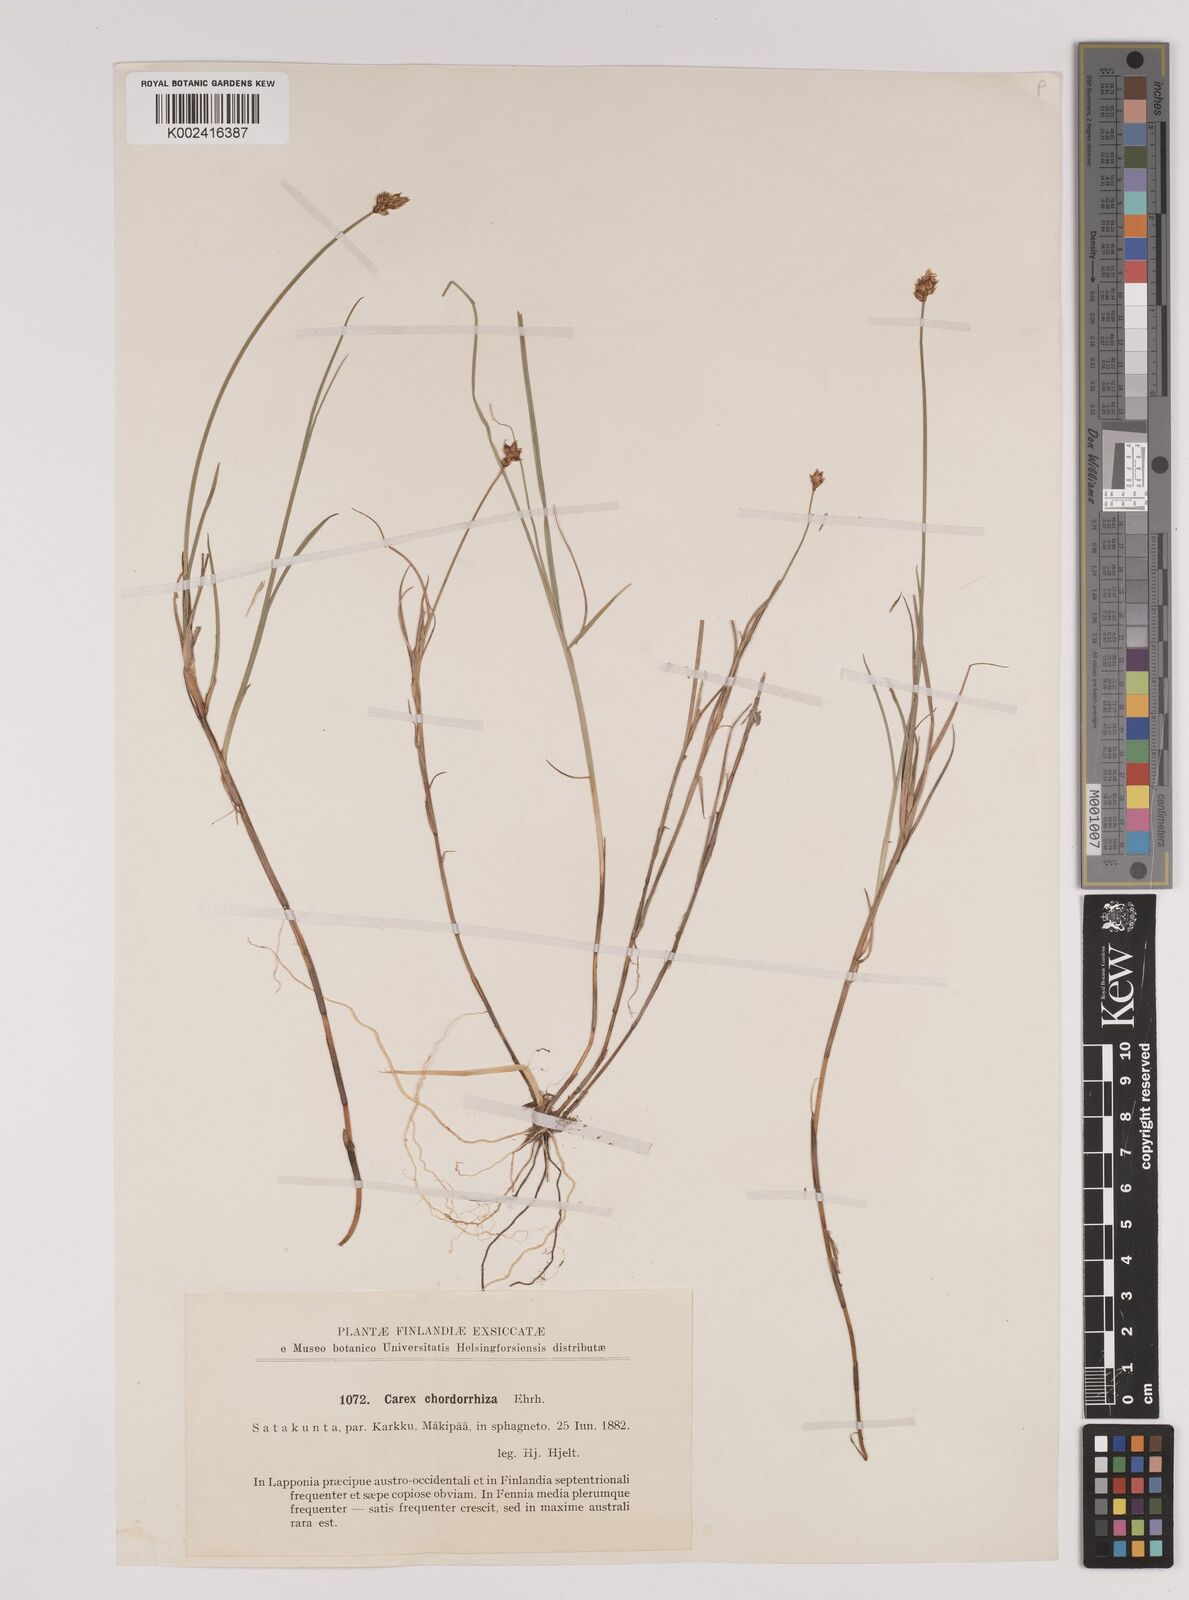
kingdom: Plantae
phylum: Tracheophyta
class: Liliopsida
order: Poales
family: Cyperaceae
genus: Carex
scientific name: Carex chordorrhiza
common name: String sedge
